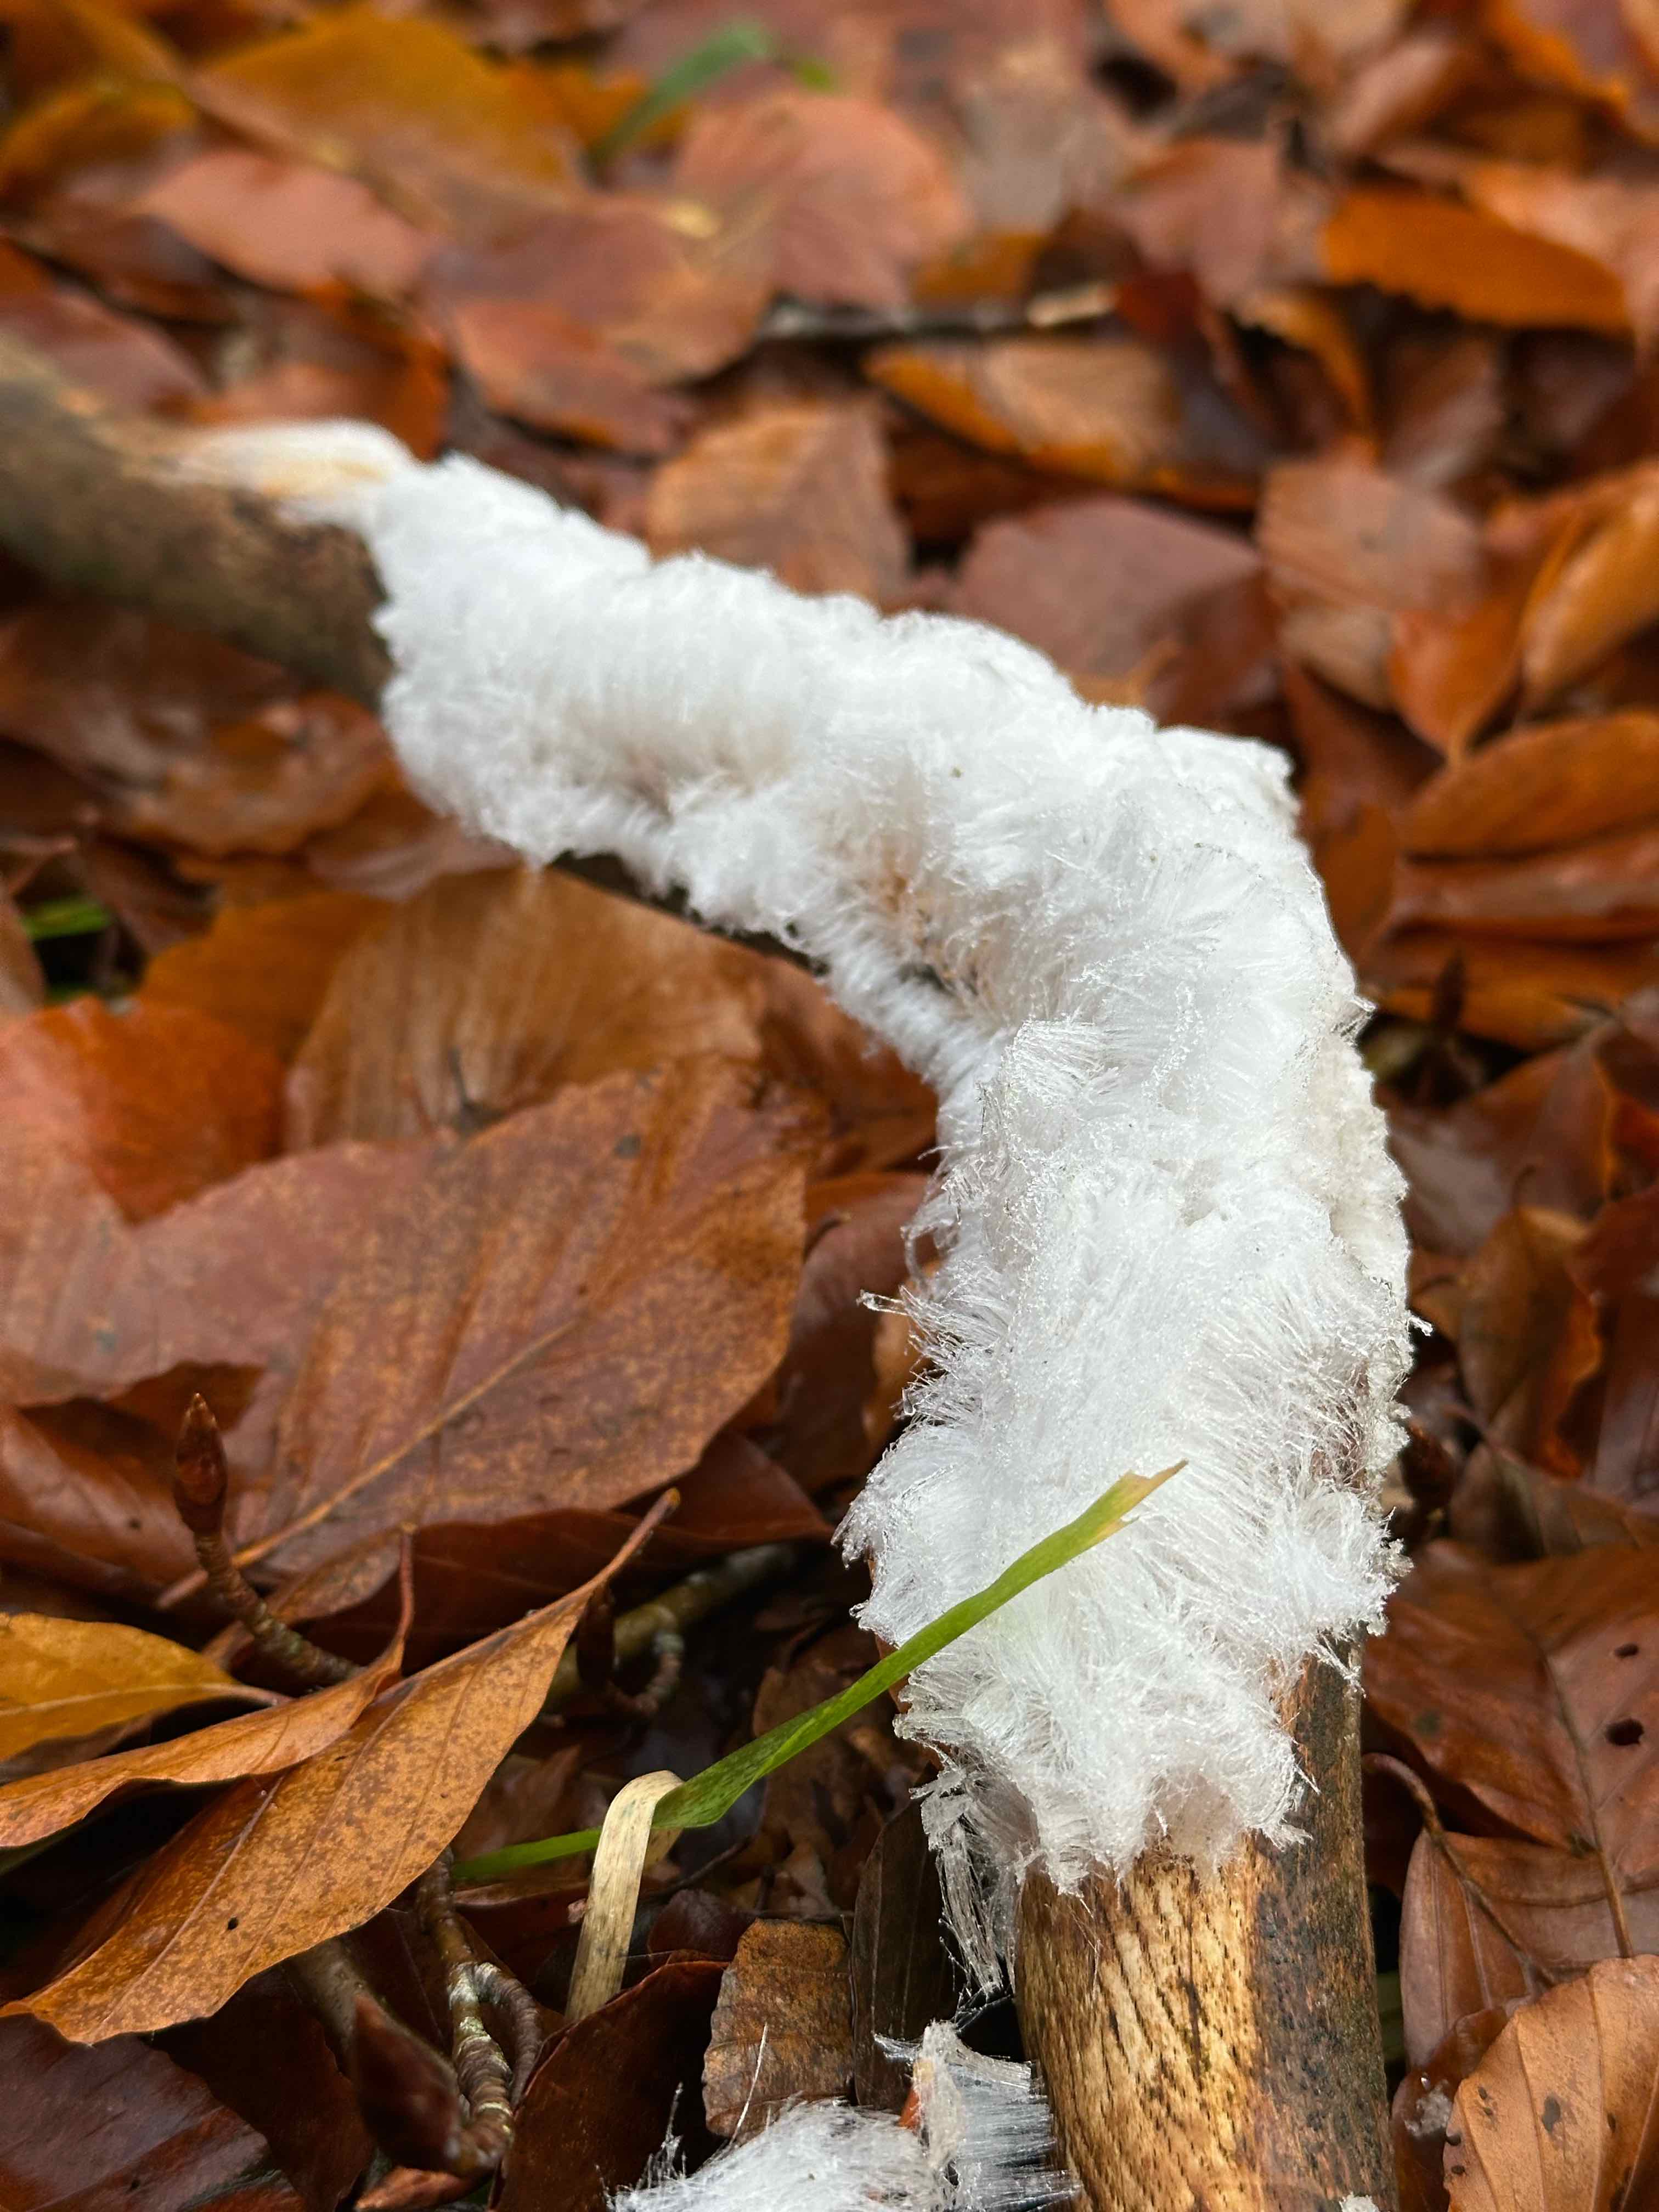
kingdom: Fungi
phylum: Basidiomycota
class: Tremellomycetes
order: Tremellales
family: Exidiaceae
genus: Exidiopsis
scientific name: Exidiopsis effusa
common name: smuk bævrehinde
